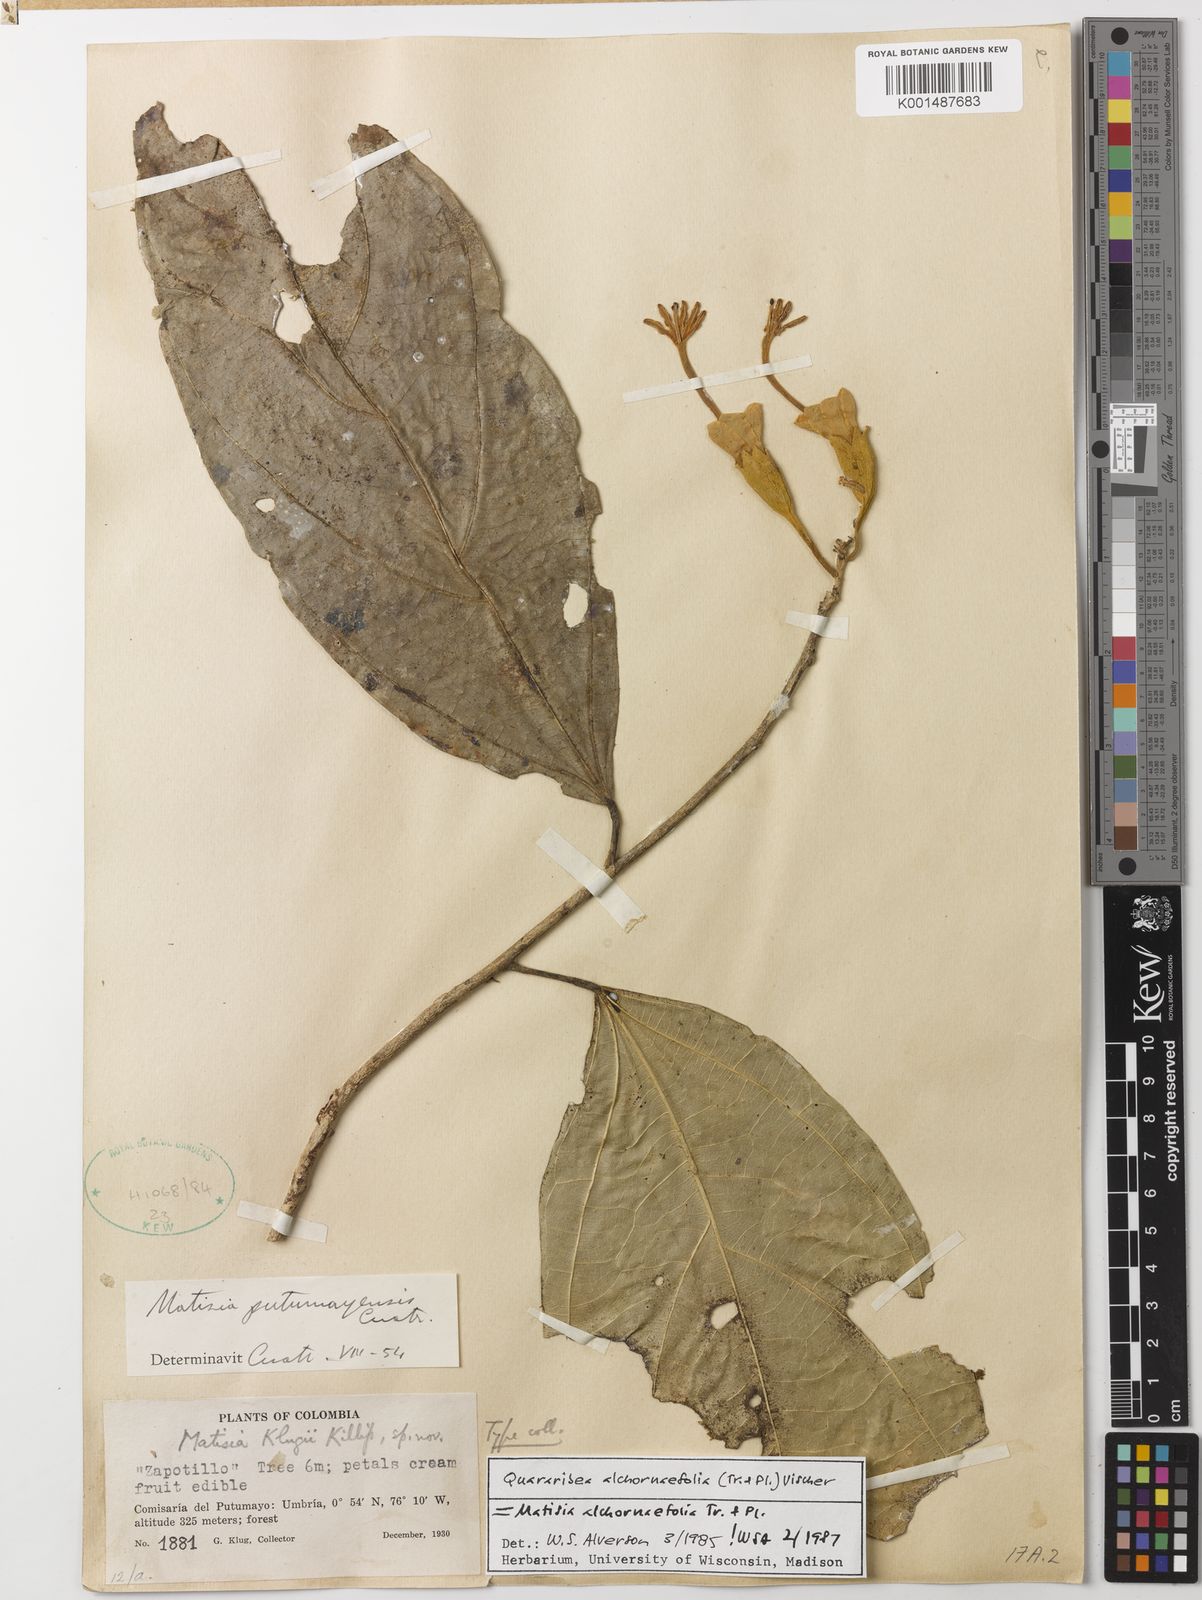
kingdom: Plantae
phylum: Tracheophyta
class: Magnoliopsida
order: Malvales
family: Malvaceae
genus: Matisia
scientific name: Matisia alchornifolia
